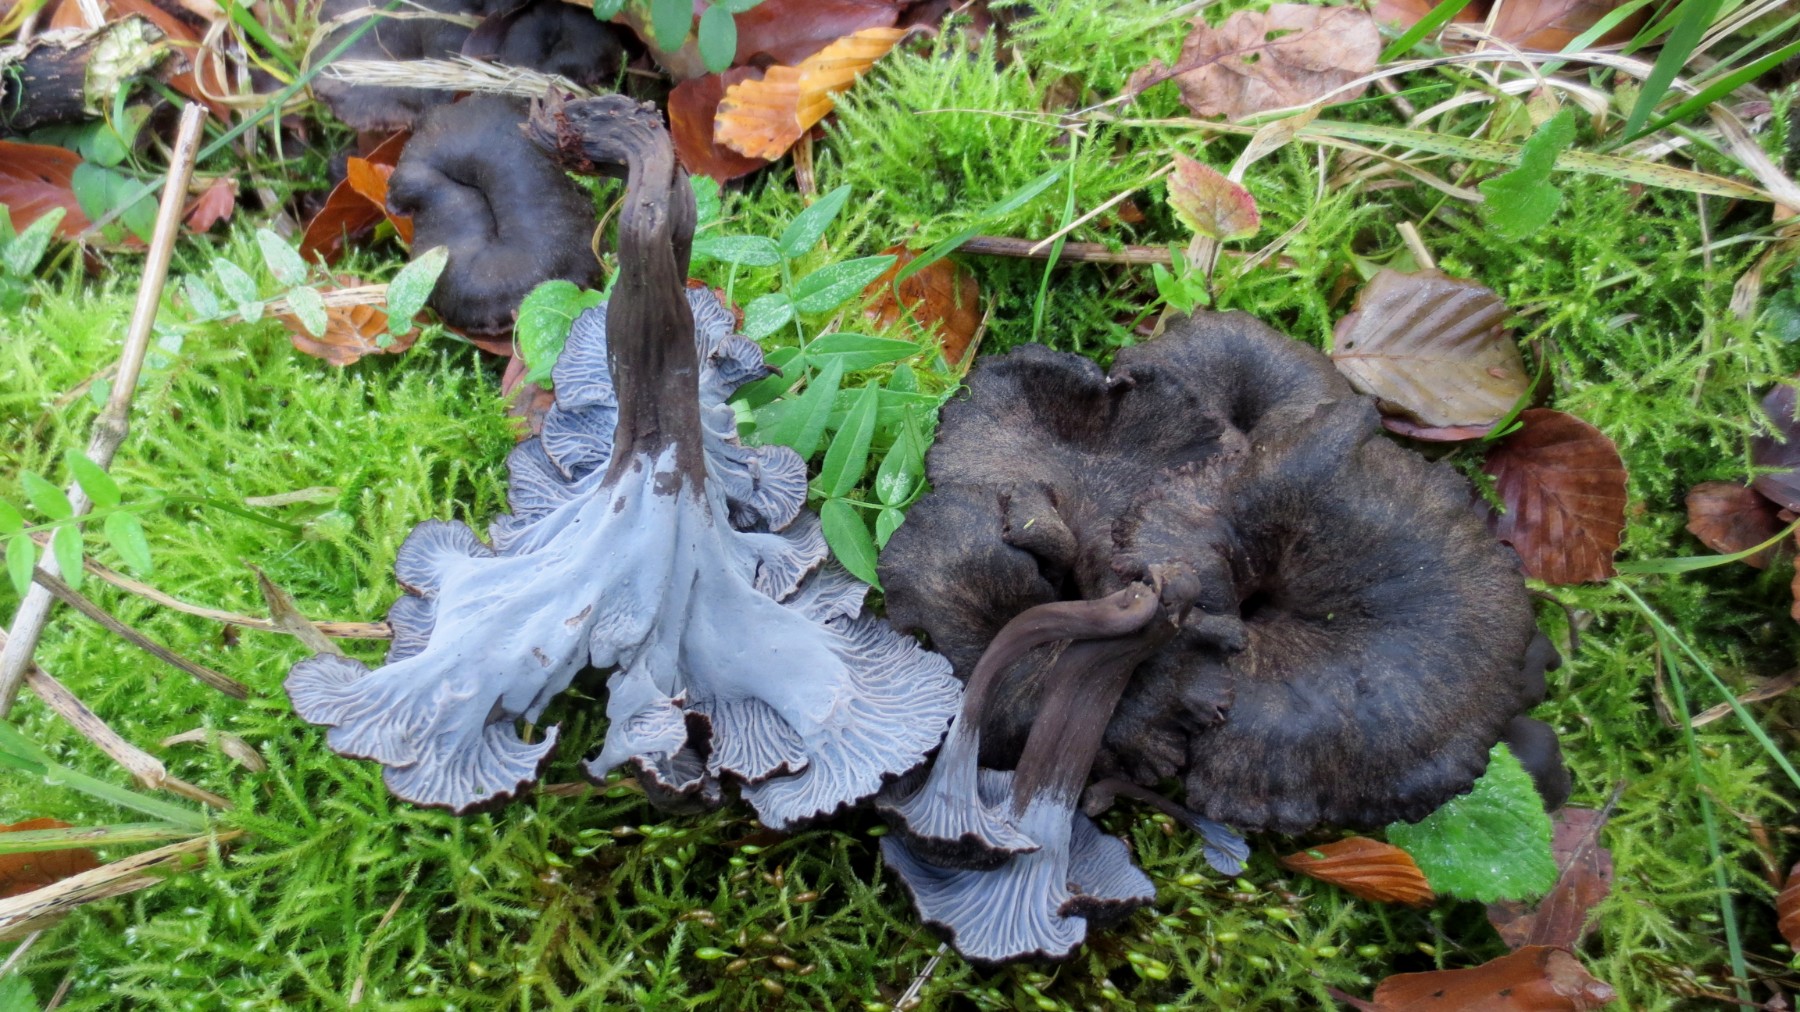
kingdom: Fungi
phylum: Basidiomycota
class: Agaricomycetes
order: Cantharellales
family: Hydnaceae
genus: Cantharellus
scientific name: Cantharellus cinereus
